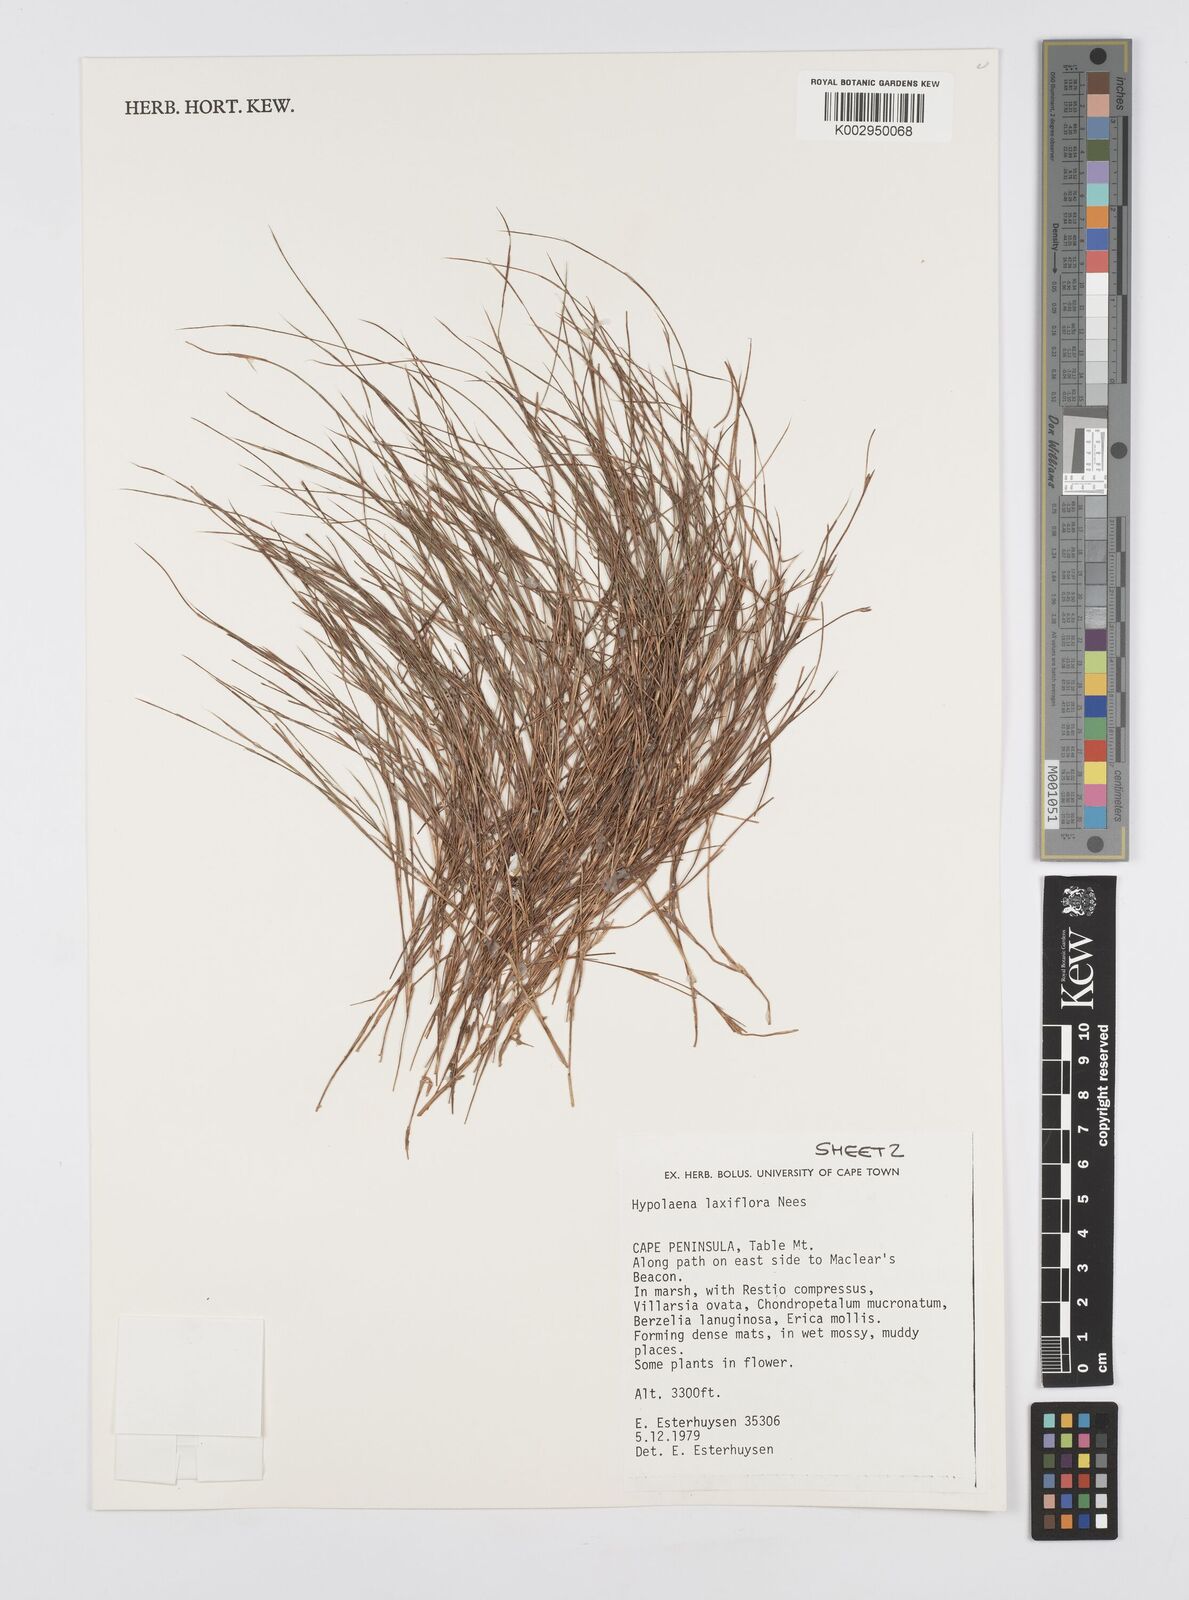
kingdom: Plantae
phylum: Tracheophyta
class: Liliopsida
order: Poales
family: Restionaceae
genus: Anthochortus
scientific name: Anthochortus laxiflorus
